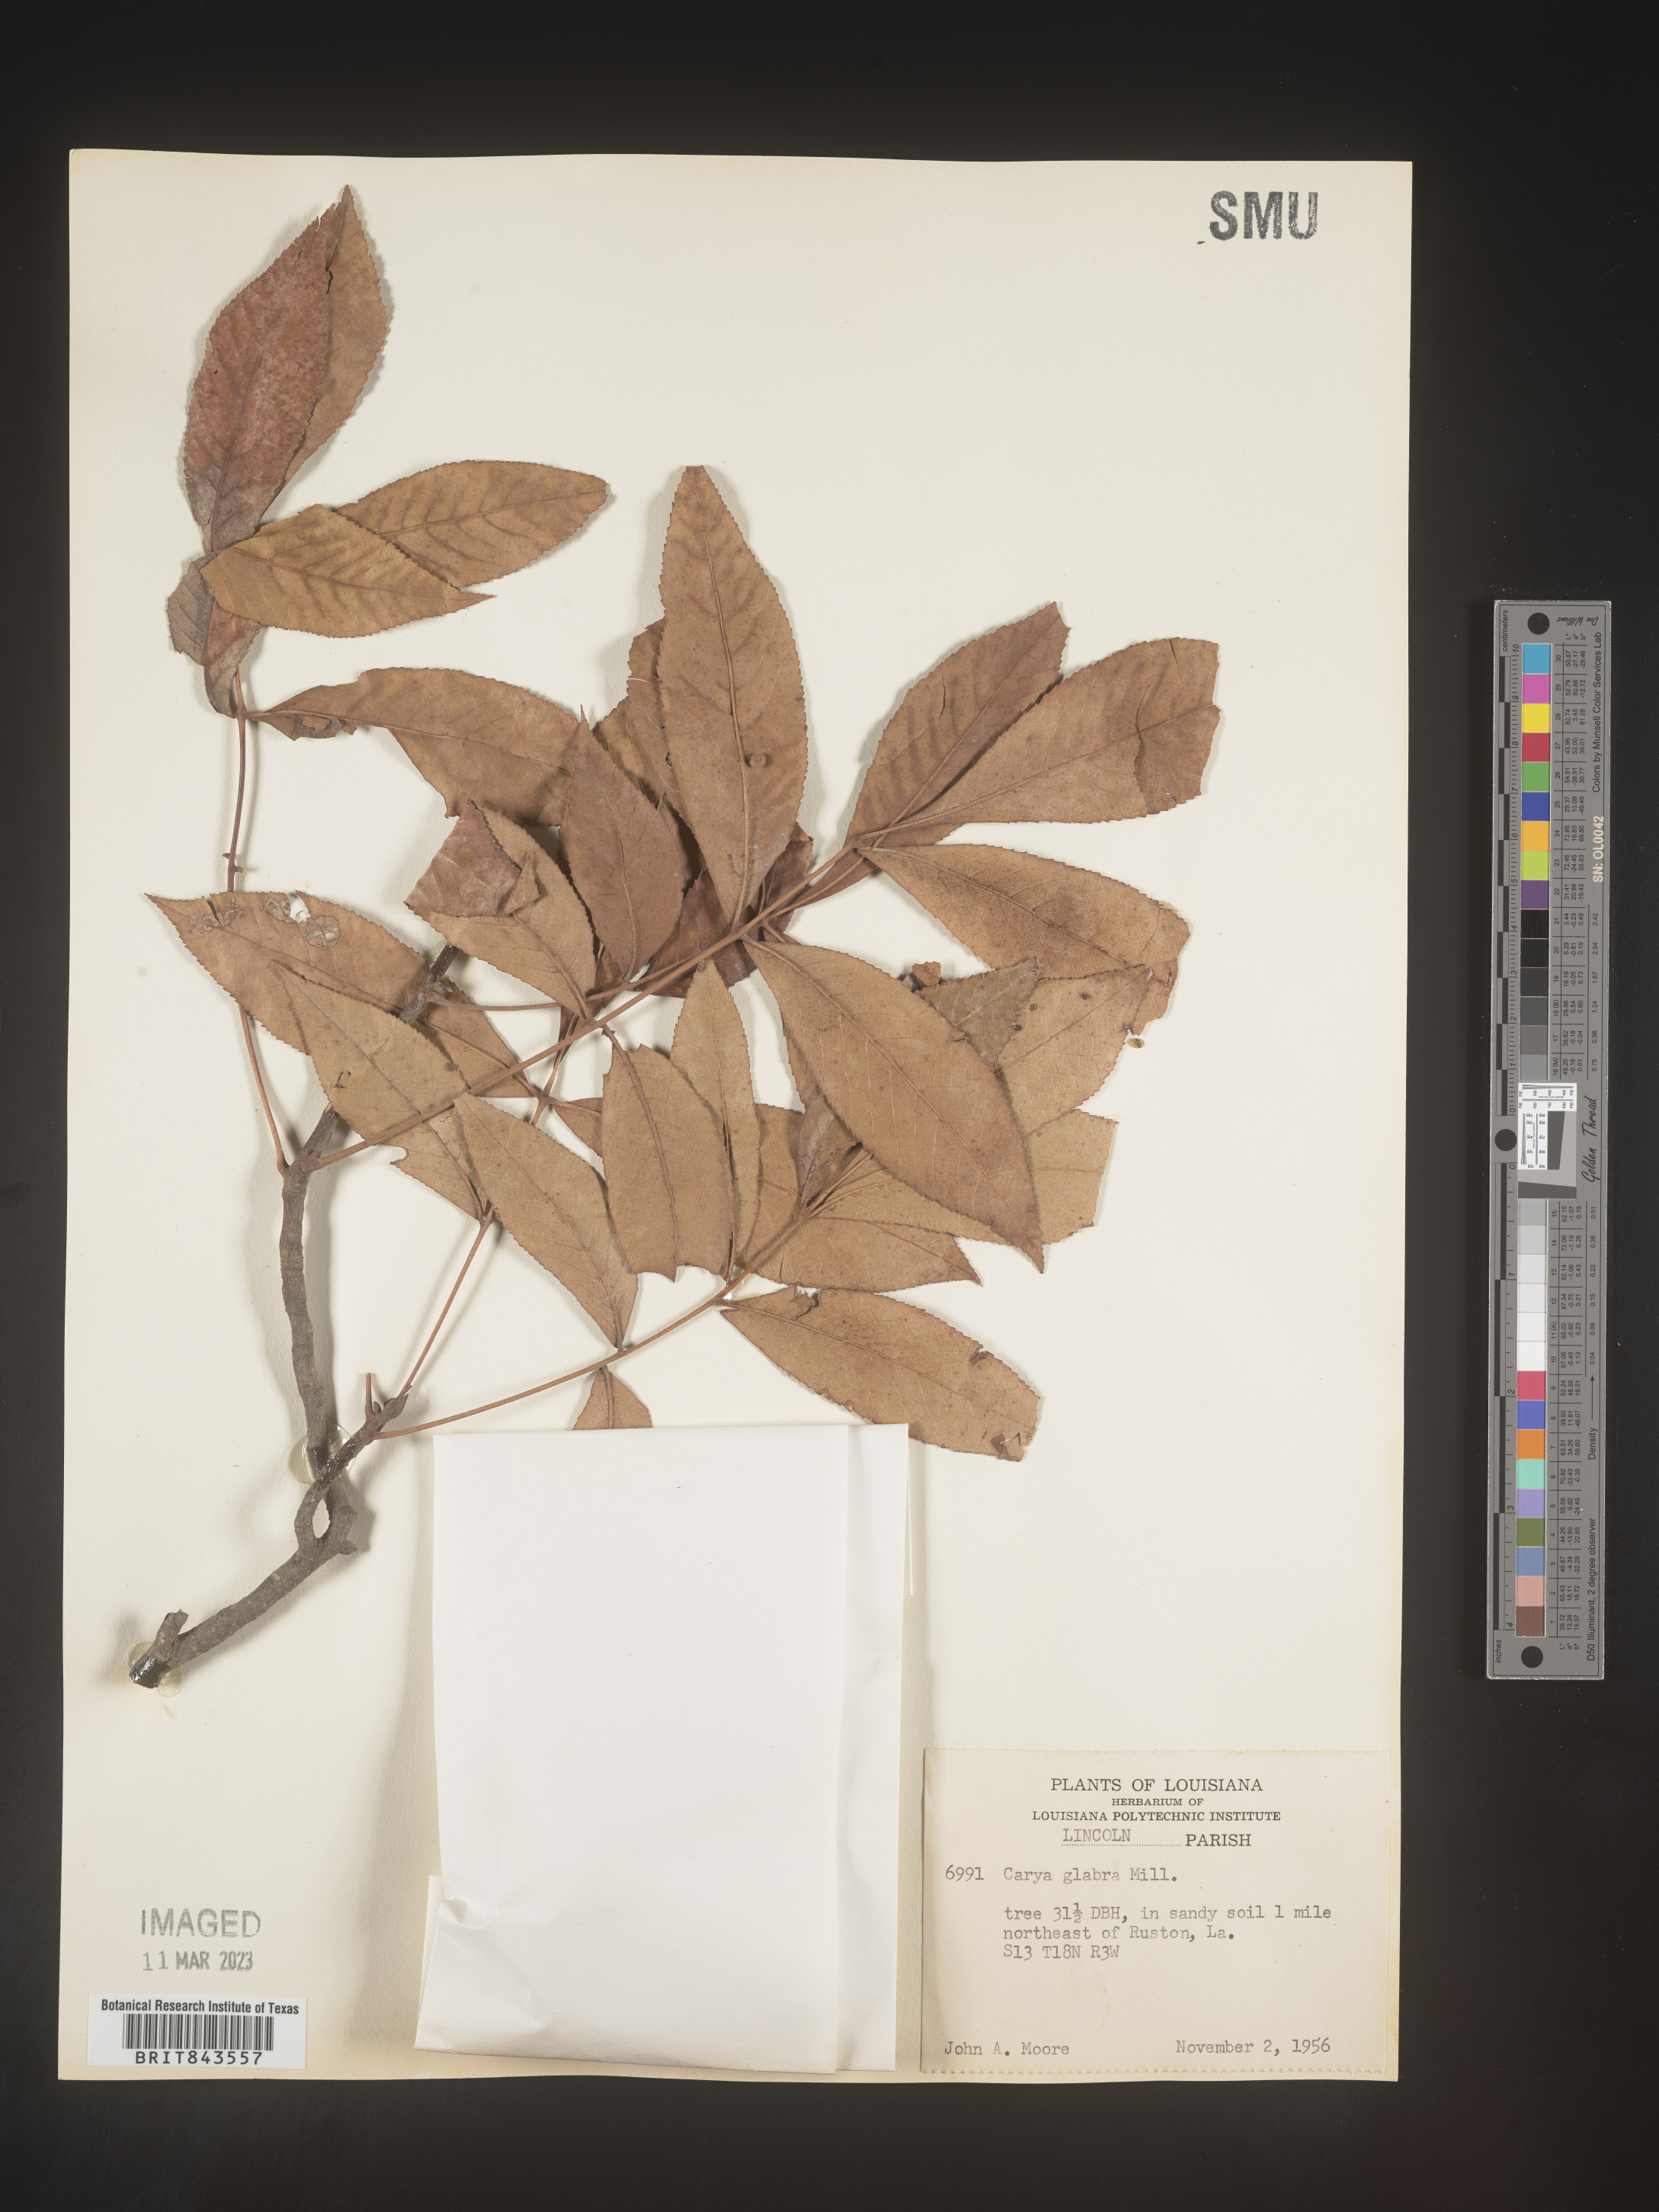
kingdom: Plantae
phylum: Tracheophyta
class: Magnoliopsida
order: Fagales
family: Juglandaceae
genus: Carya
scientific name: Carya glabra
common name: Pignut hickory
